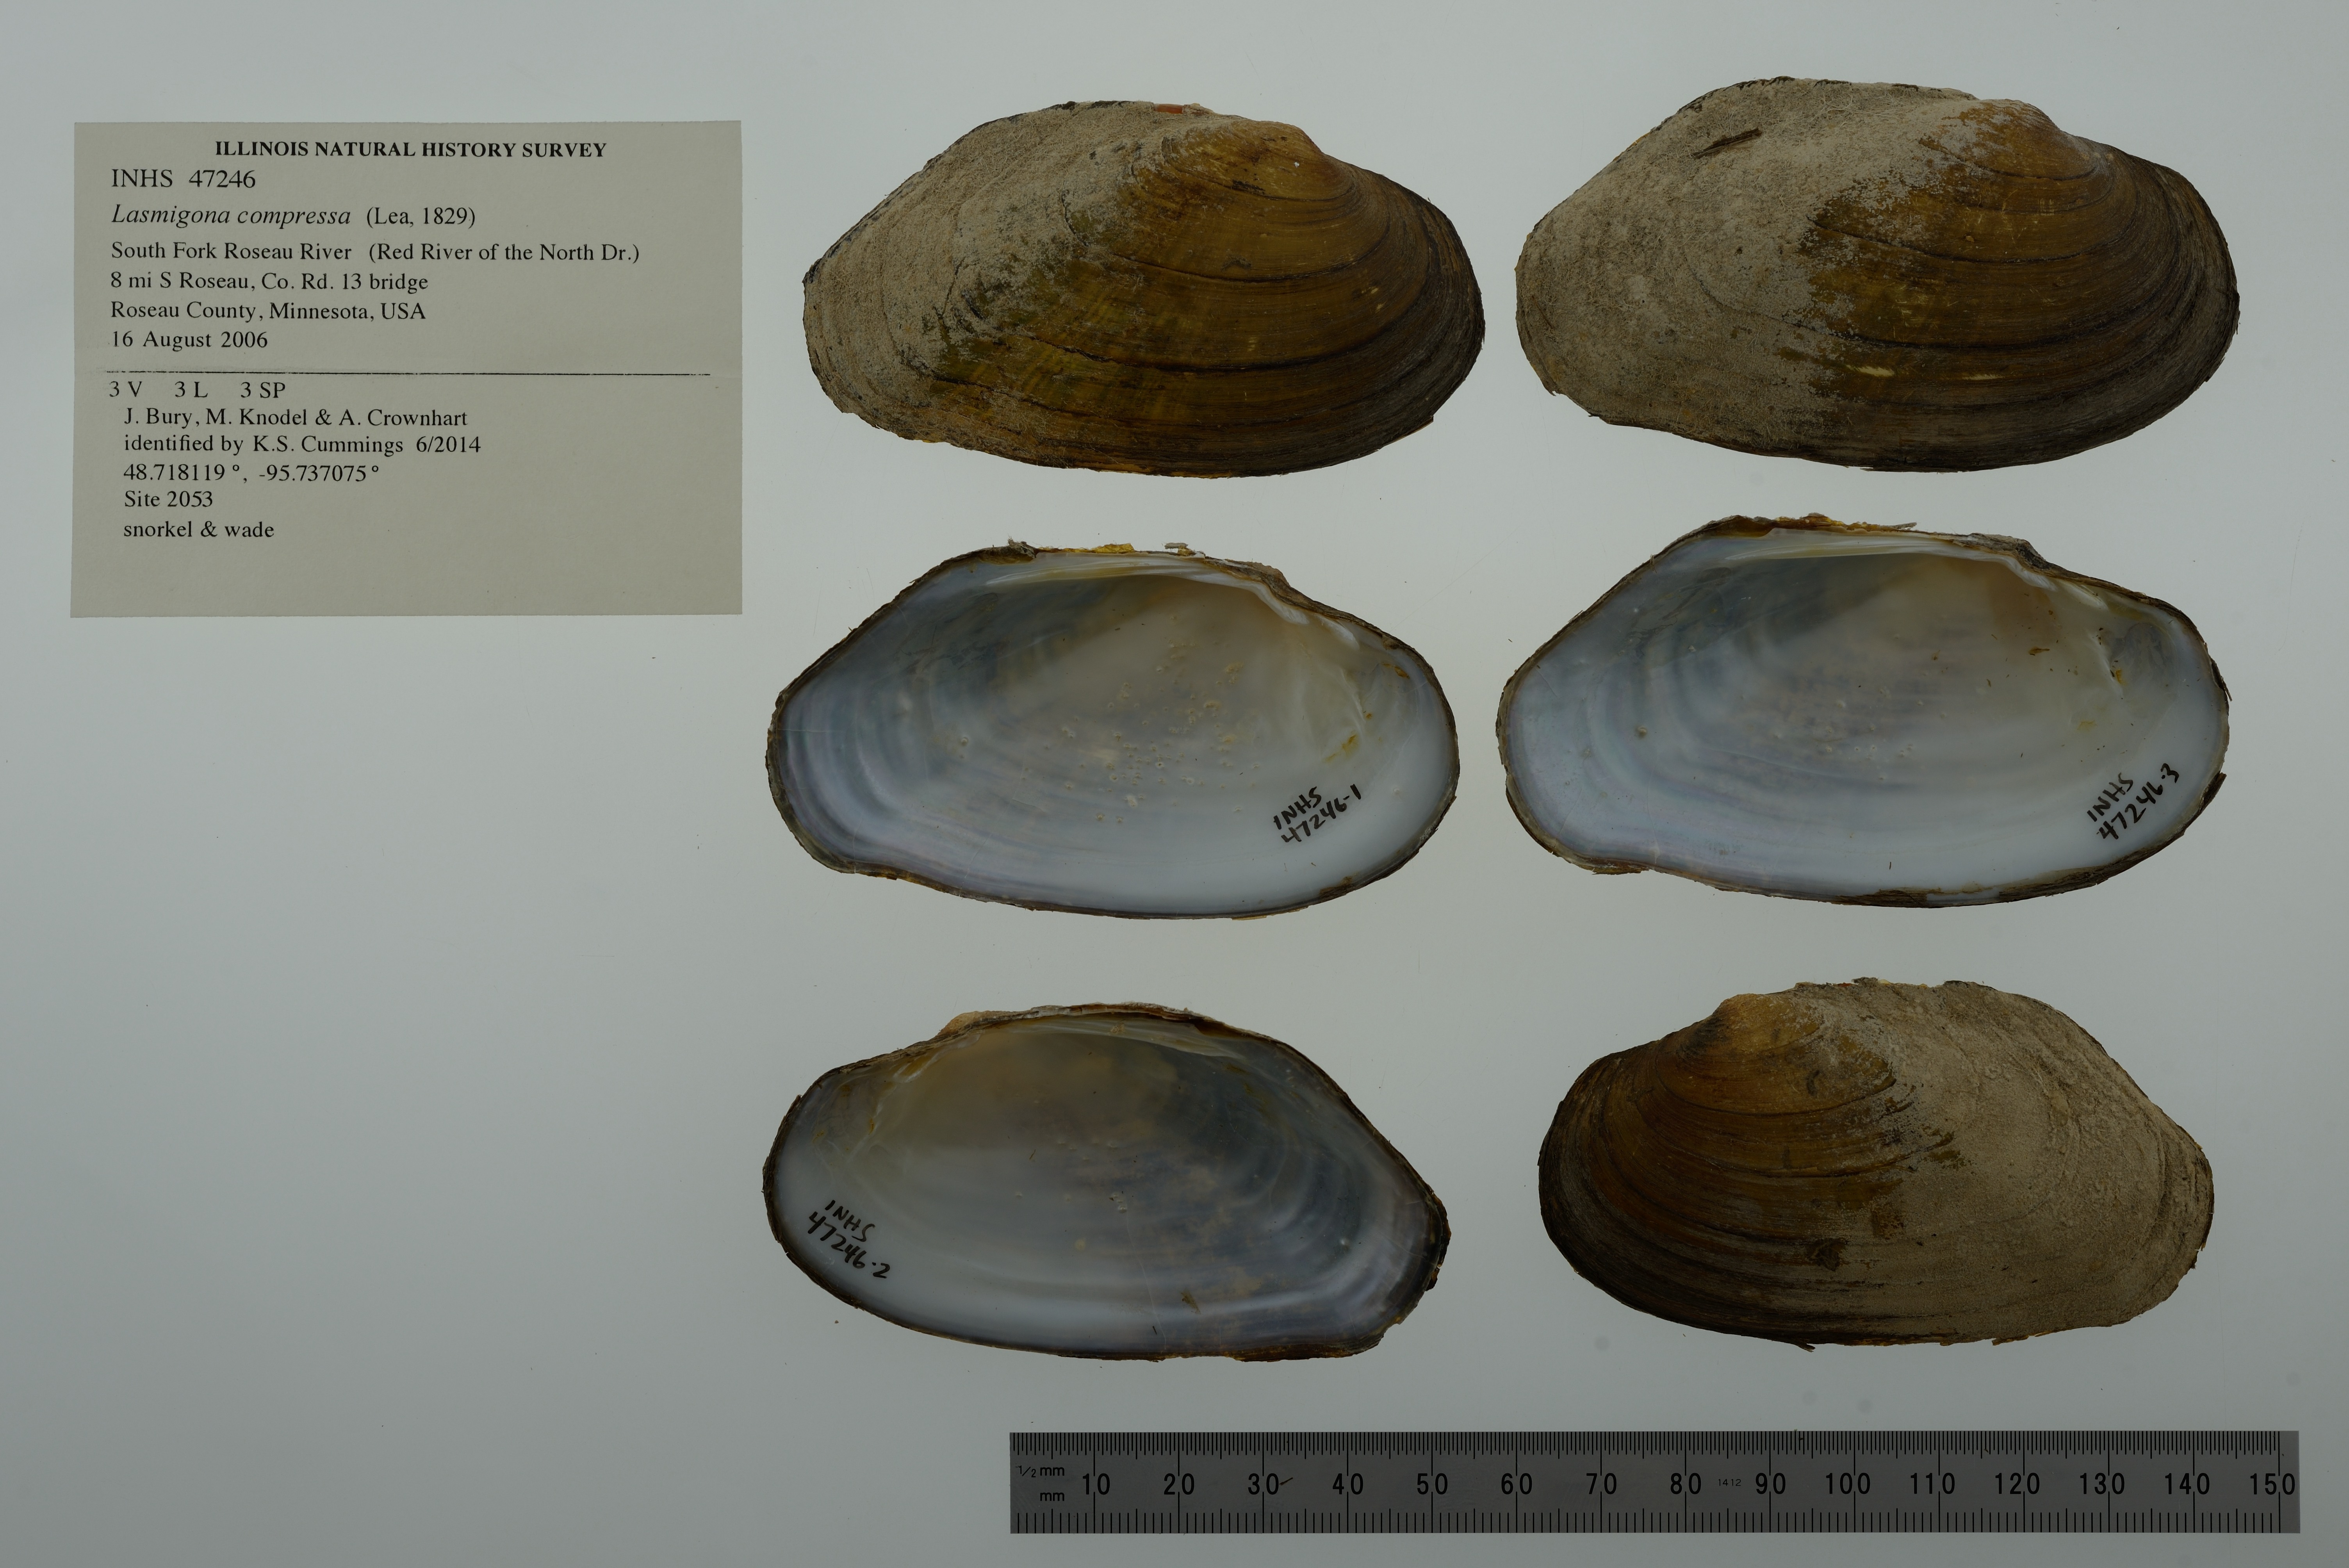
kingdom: Animalia
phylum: Mollusca
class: Bivalvia
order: Unionida
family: Unionidae
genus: Lasmigona
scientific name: Lasmigona compressa
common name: Creek heelsplitter
